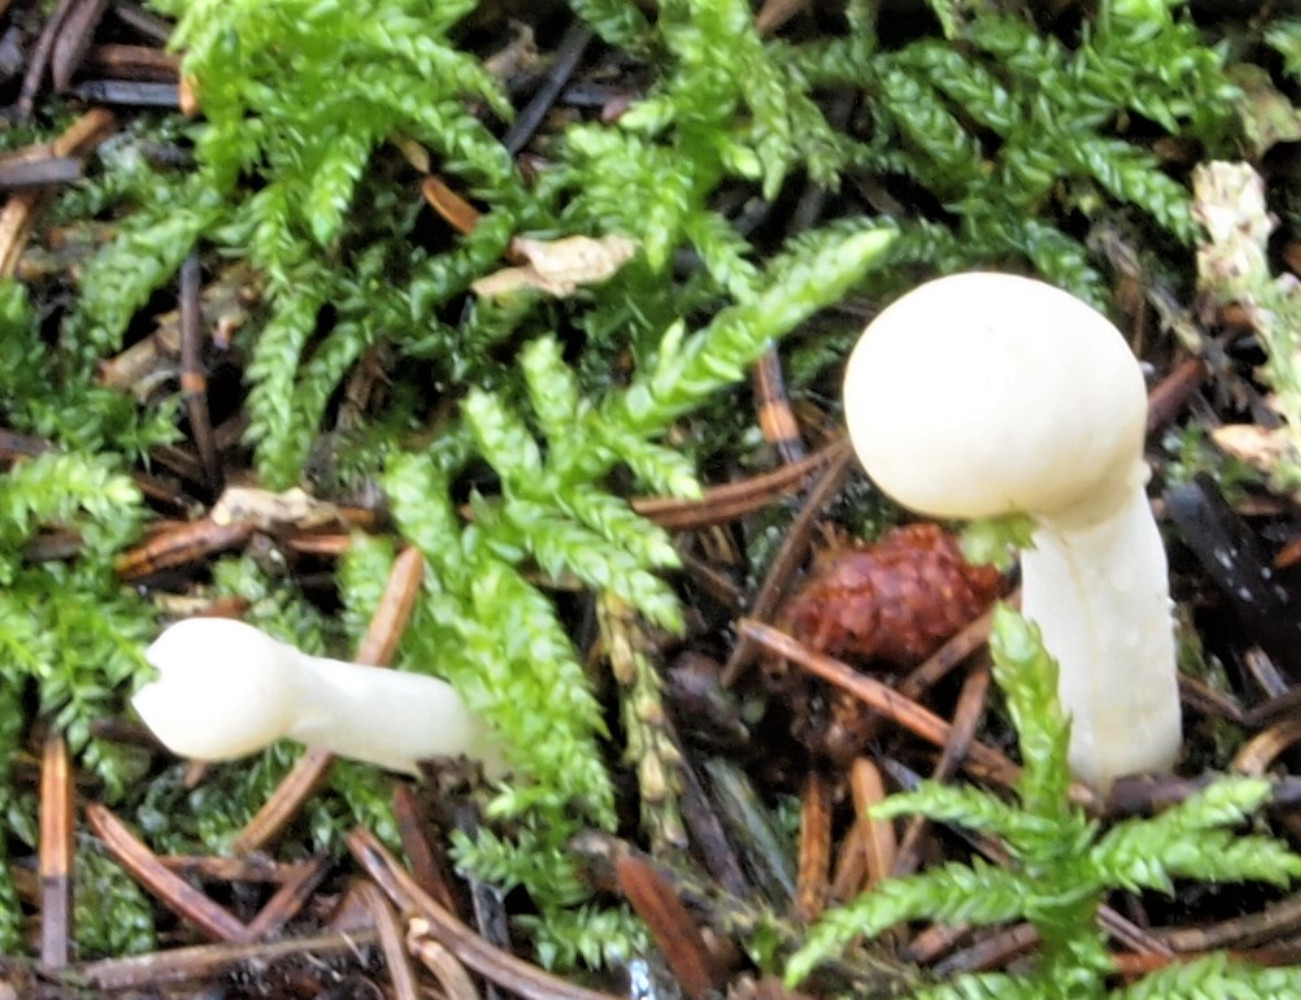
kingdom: Fungi
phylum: Ascomycota
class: Sordariomycetes
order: Hypocreales
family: Hypocreaceae
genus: Trichoderma
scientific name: Trichoderma leucopus
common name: lysstokket kødkerne
